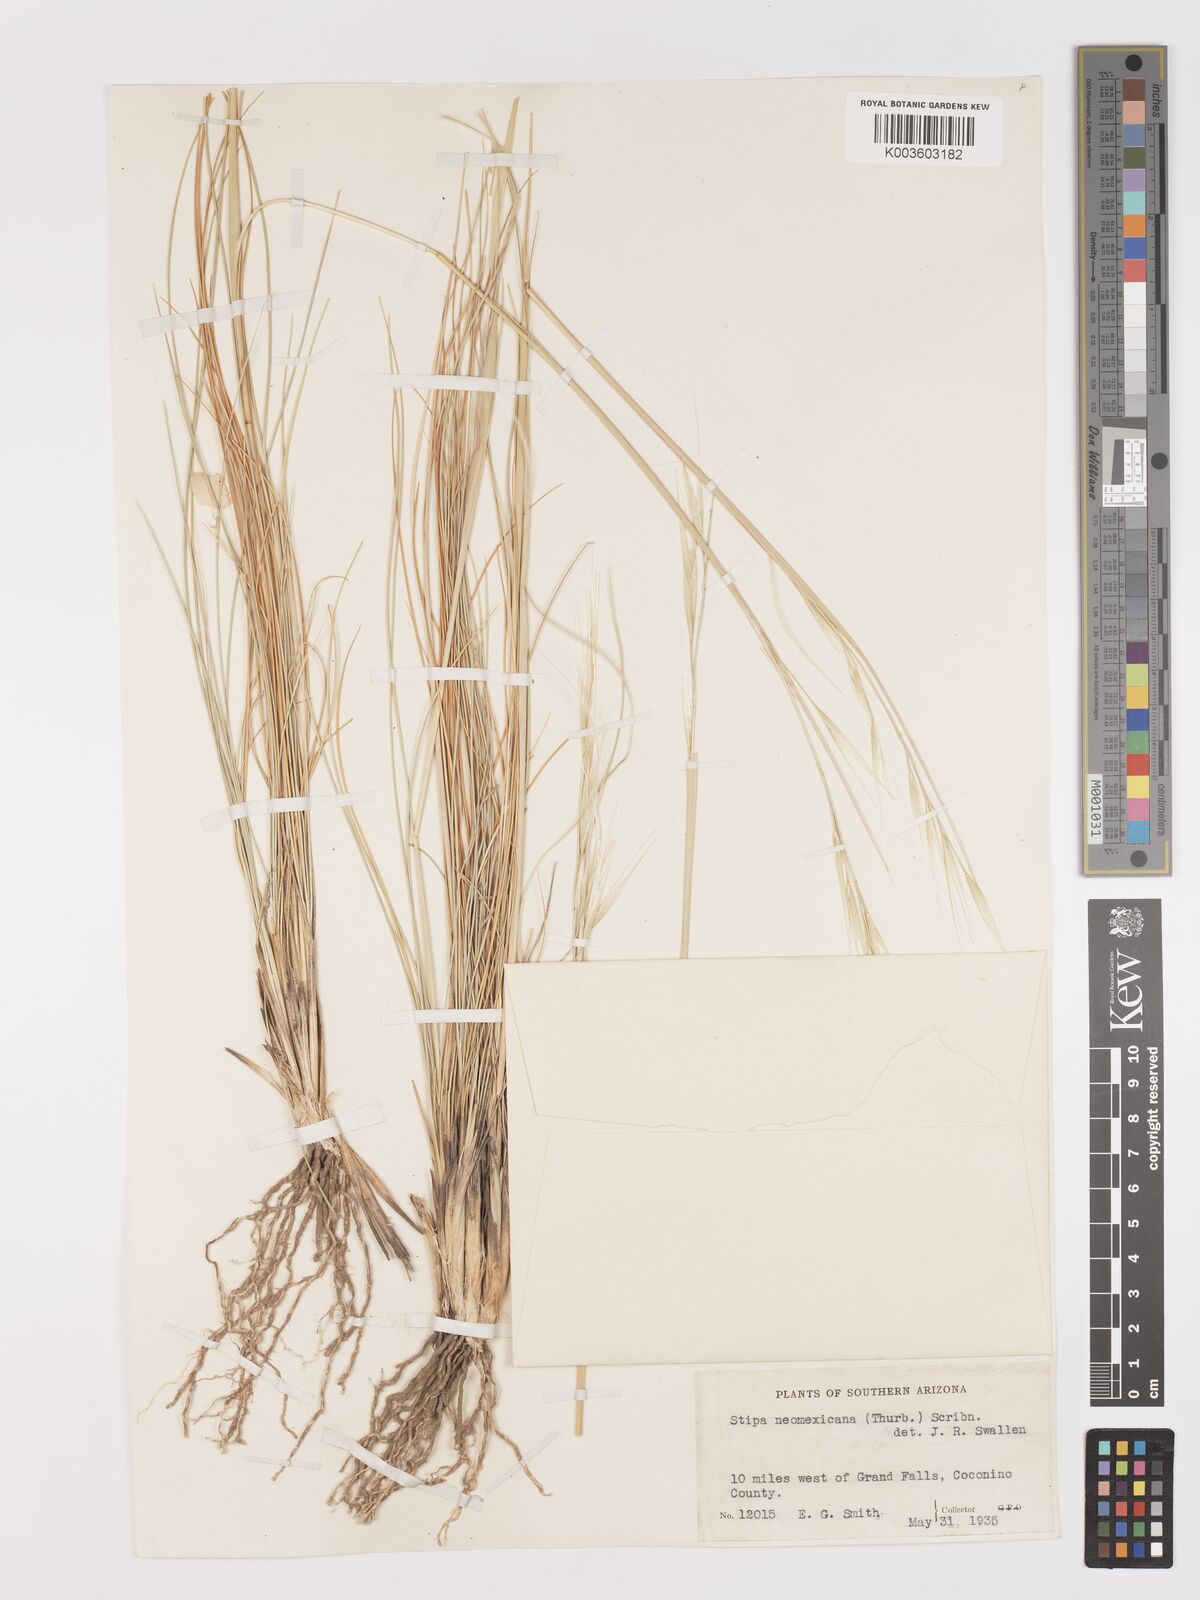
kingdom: Plantae
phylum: Tracheophyta
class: Liliopsida
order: Poales
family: Poaceae
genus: Hesperostipa
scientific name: Hesperostipa neomexicana
